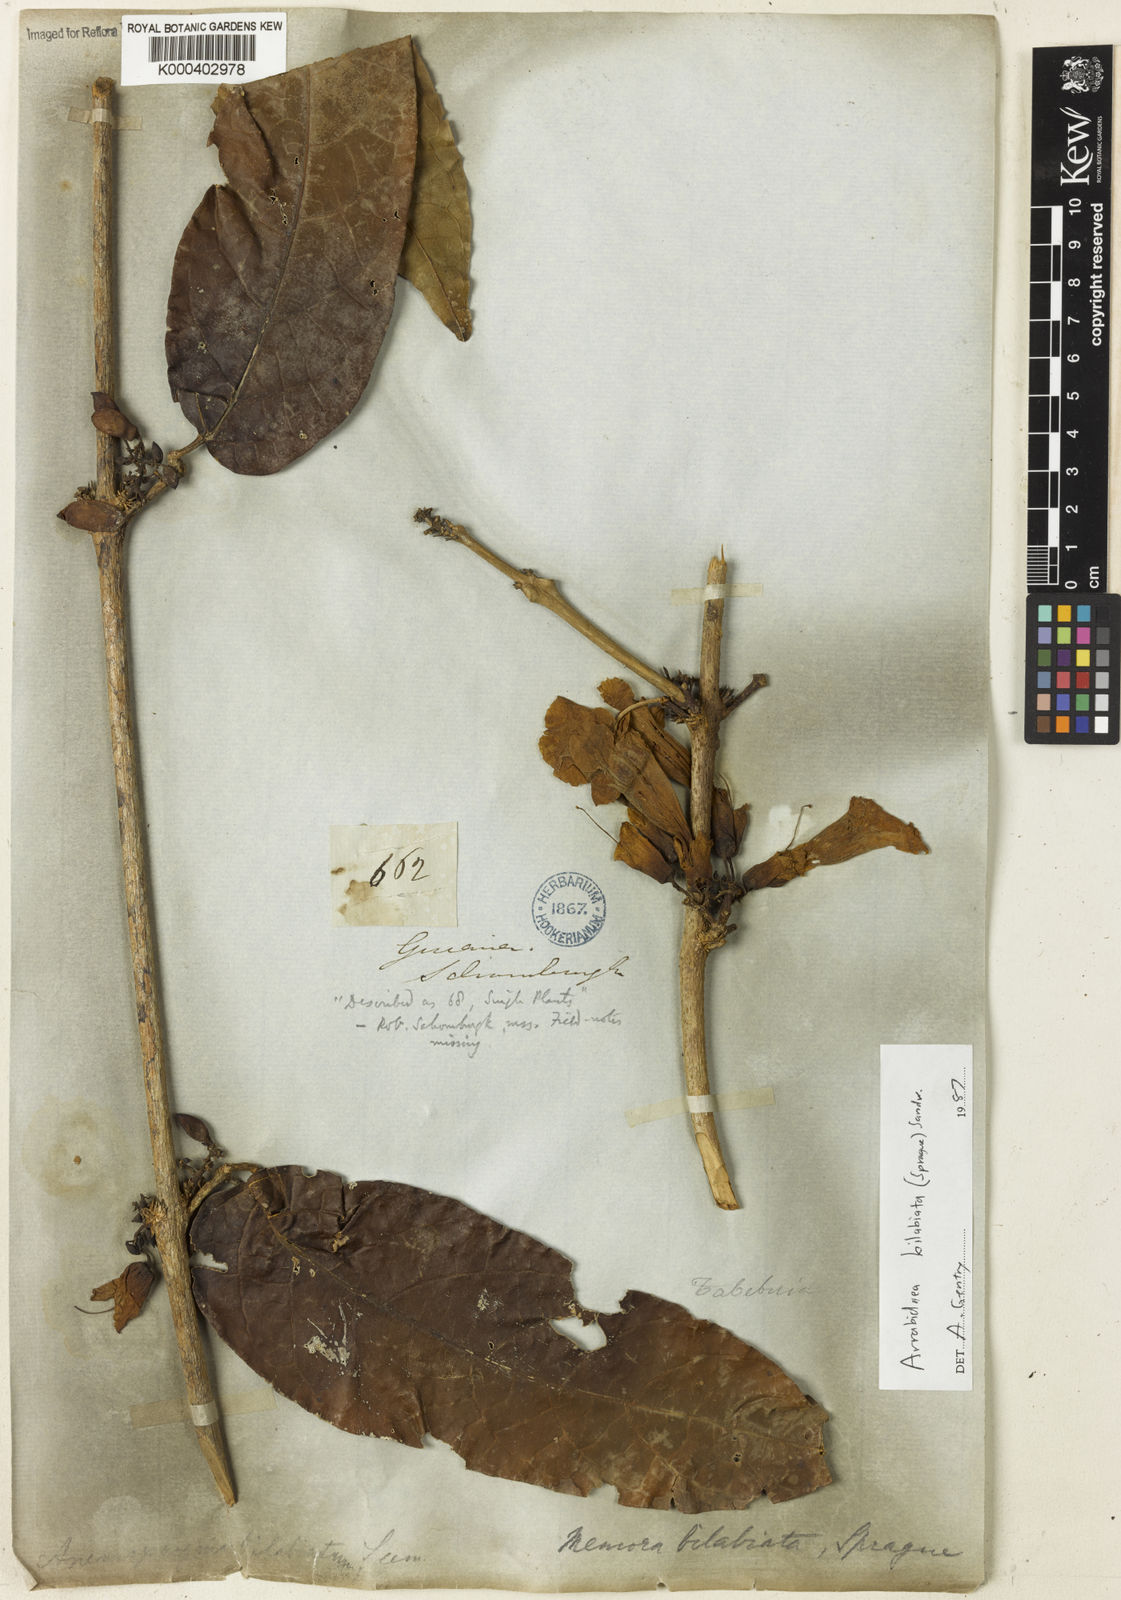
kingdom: Plantae
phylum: Tracheophyta
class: Magnoliopsida
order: Lamiales
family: Bignoniaceae
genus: Tanaecium
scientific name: Tanaecium bilabiatum
